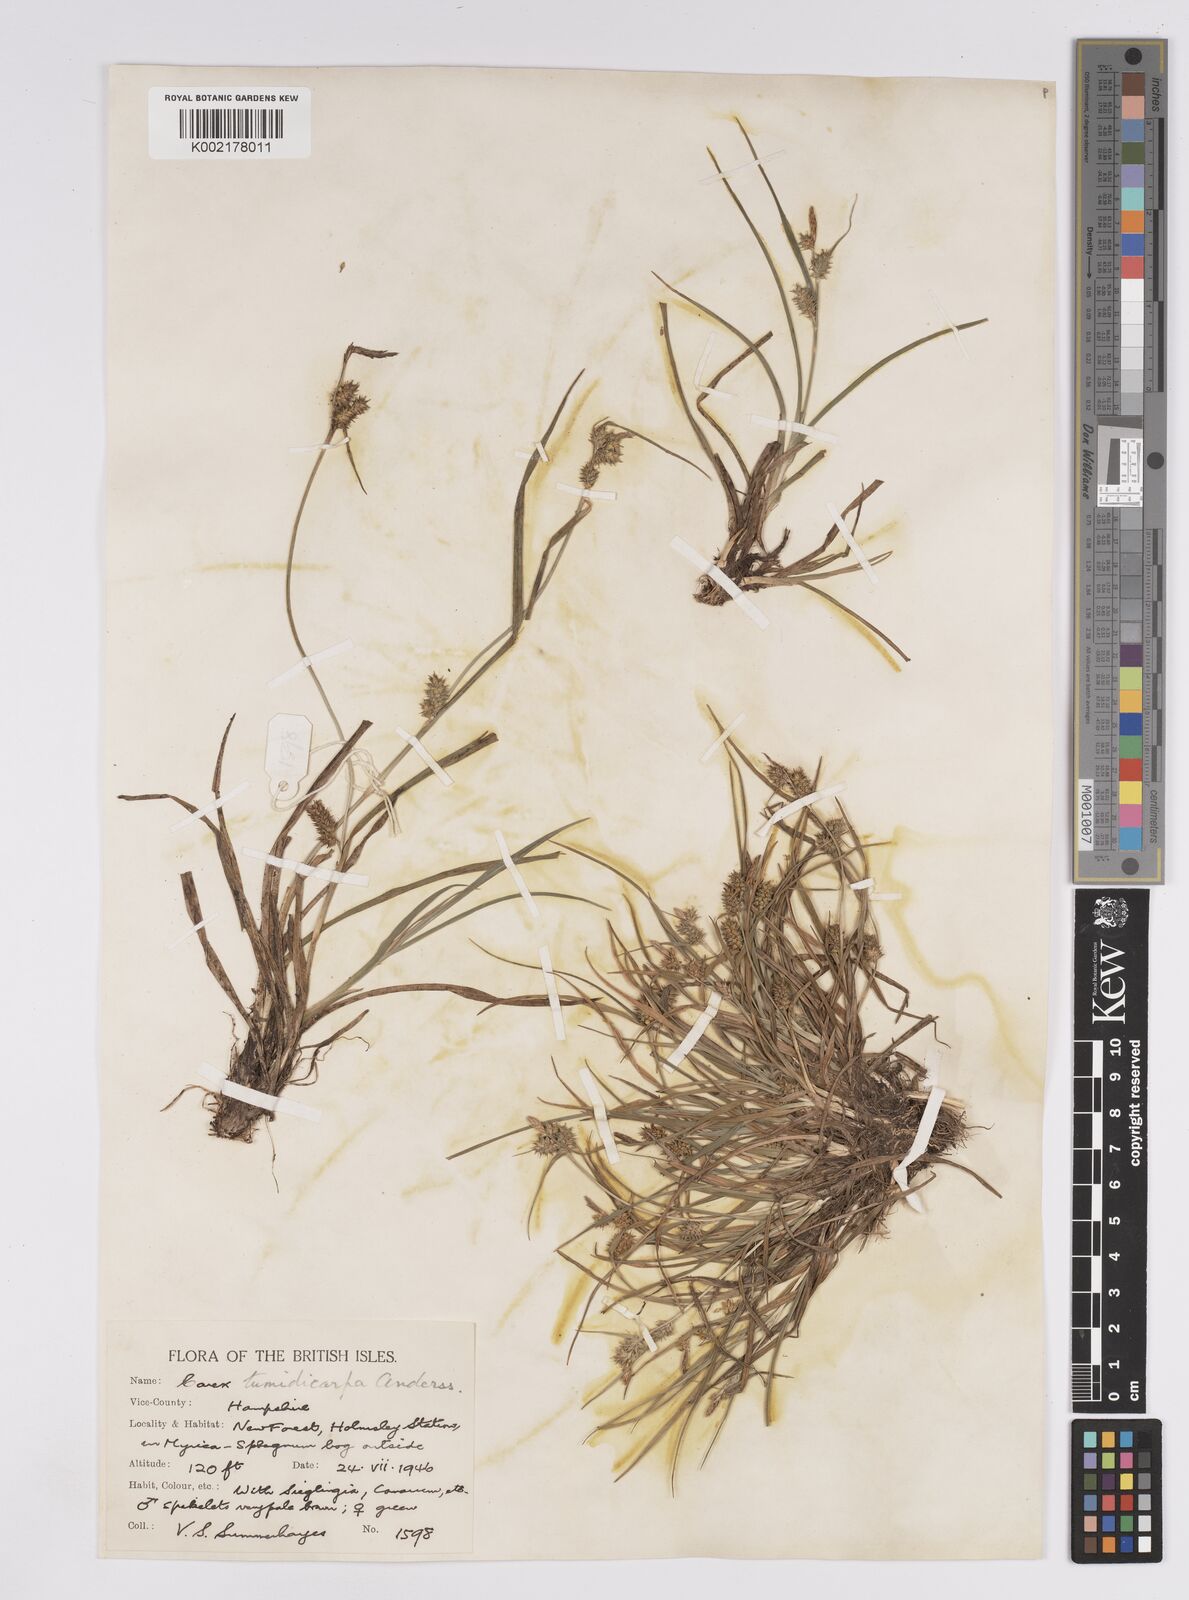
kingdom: Plantae
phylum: Tracheophyta
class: Liliopsida
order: Poales
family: Cyperaceae
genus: Carex
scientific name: Carex demissa
